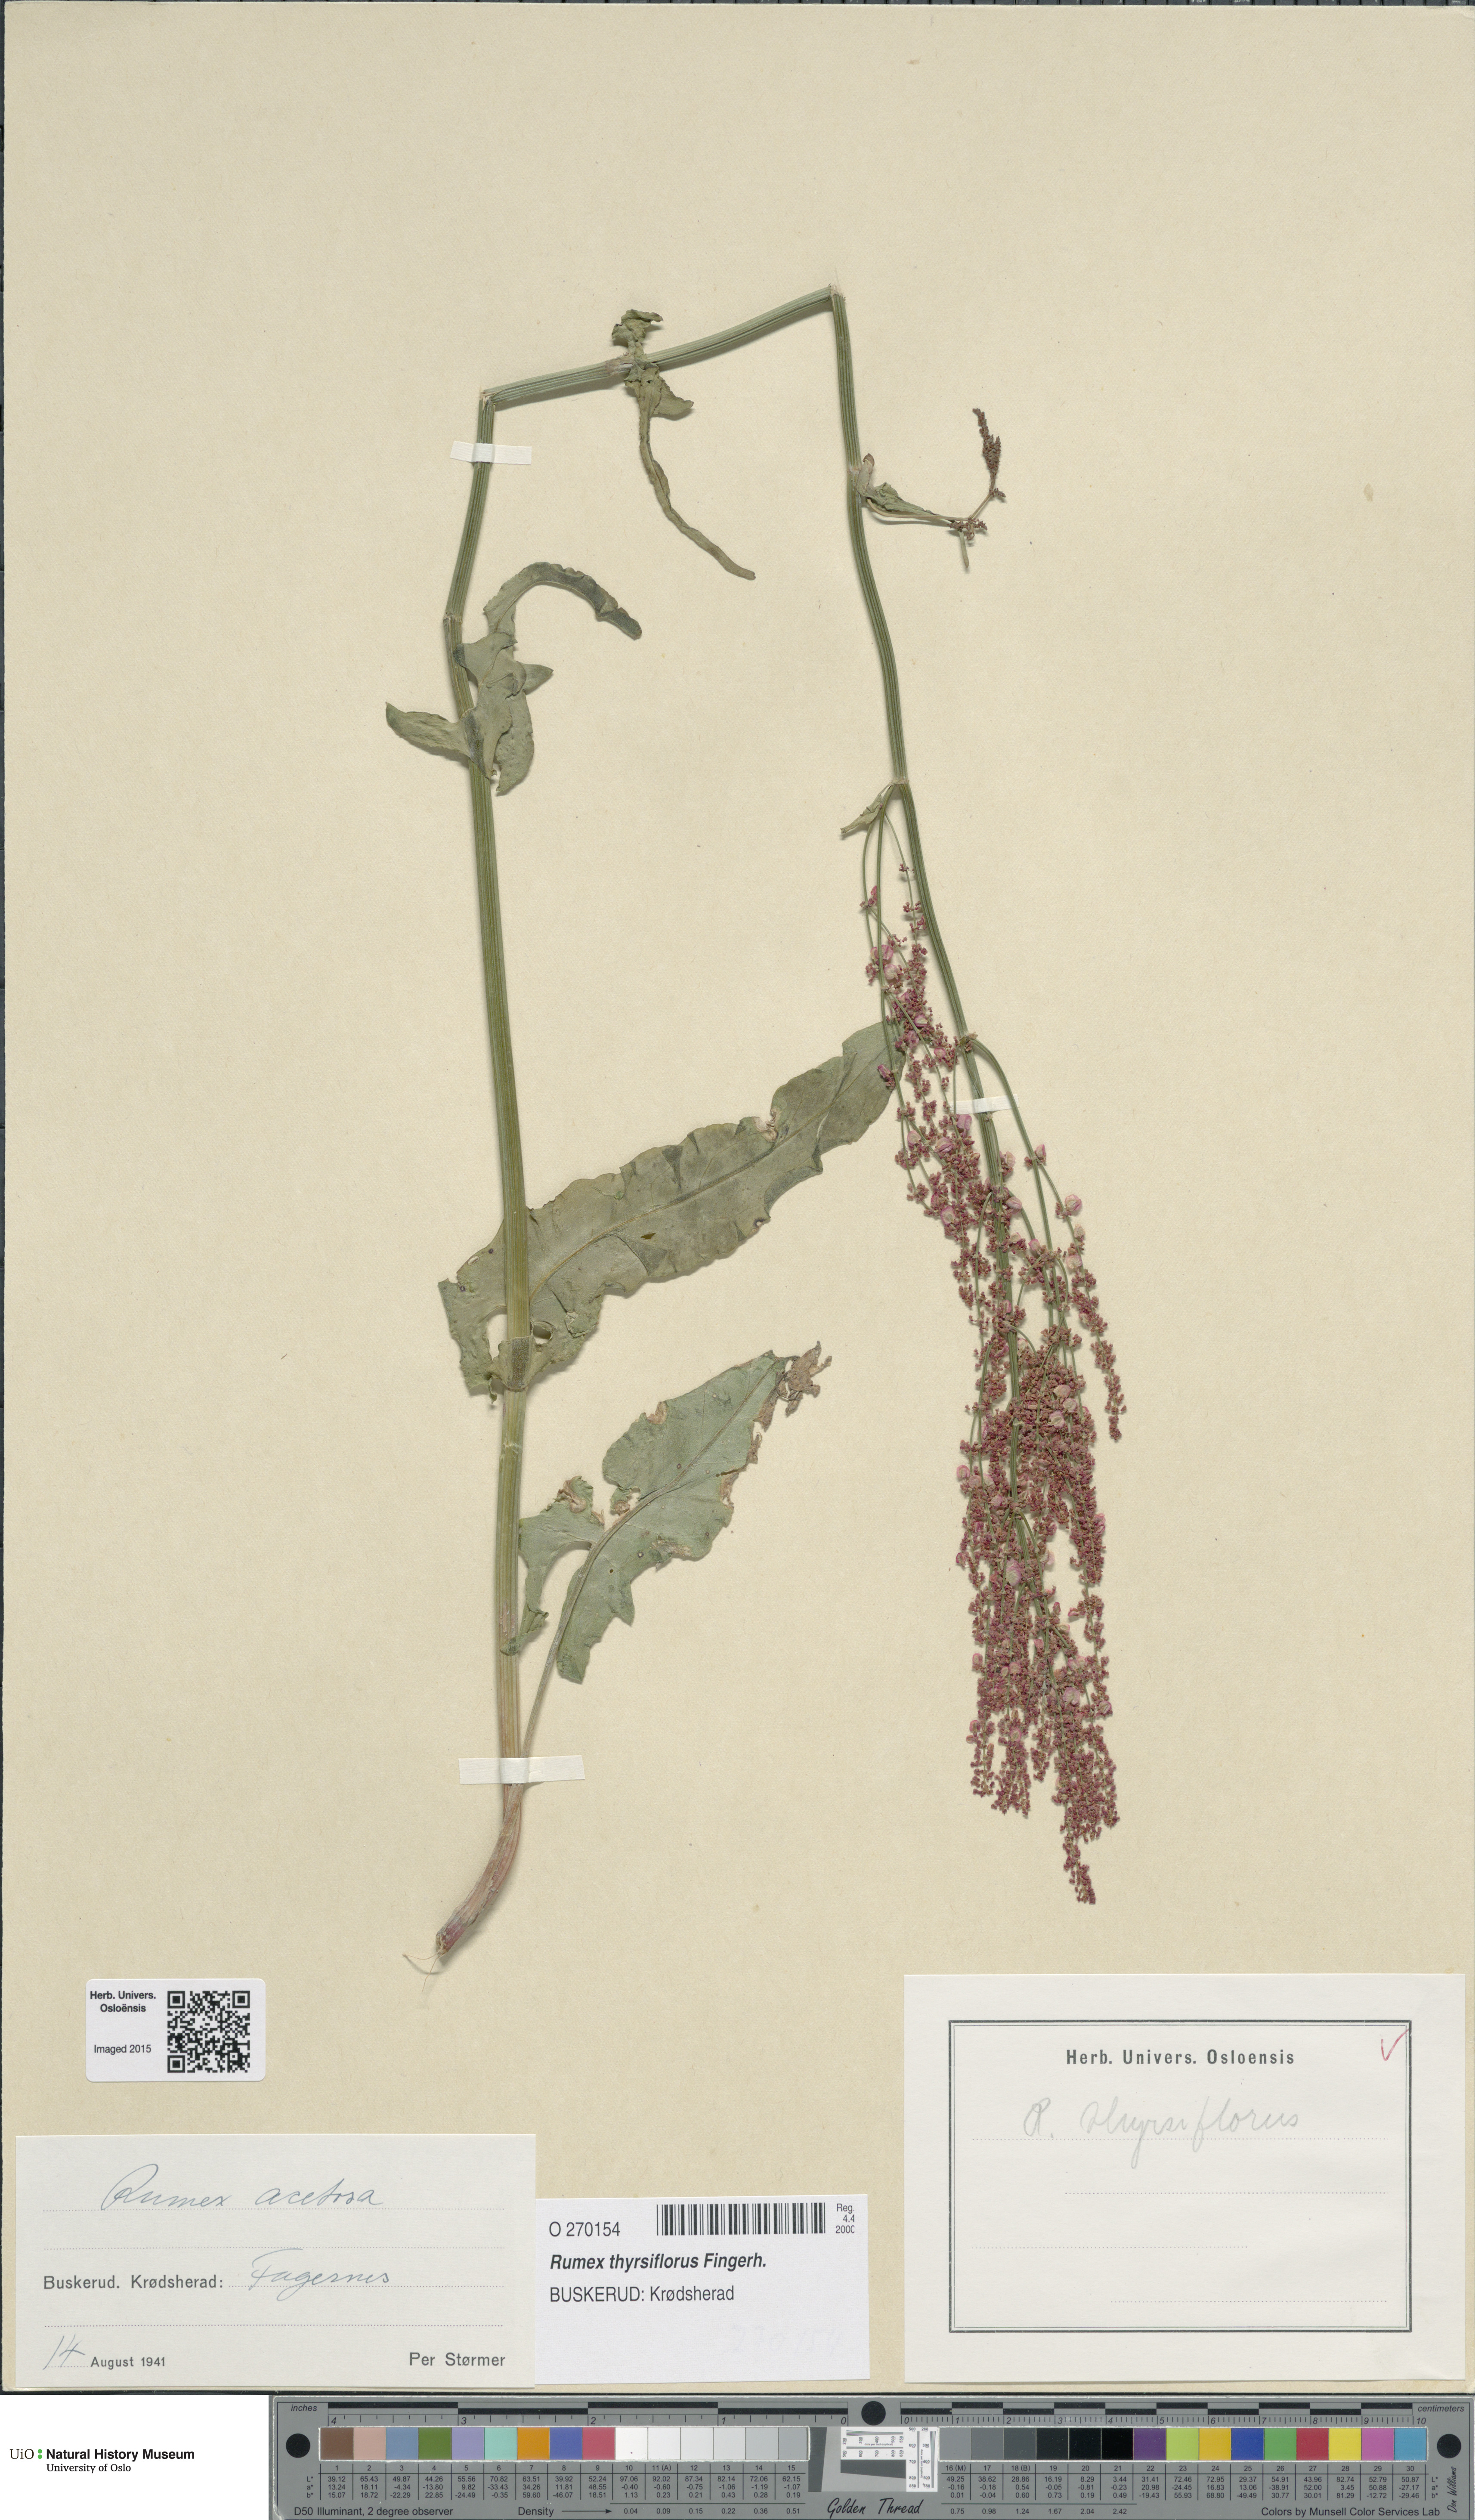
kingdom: Plantae
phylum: Tracheophyta
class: Magnoliopsida
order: Caryophyllales
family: Polygonaceae
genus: Rumex
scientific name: Rumex thyrsiflorus
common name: Garden sorrel
